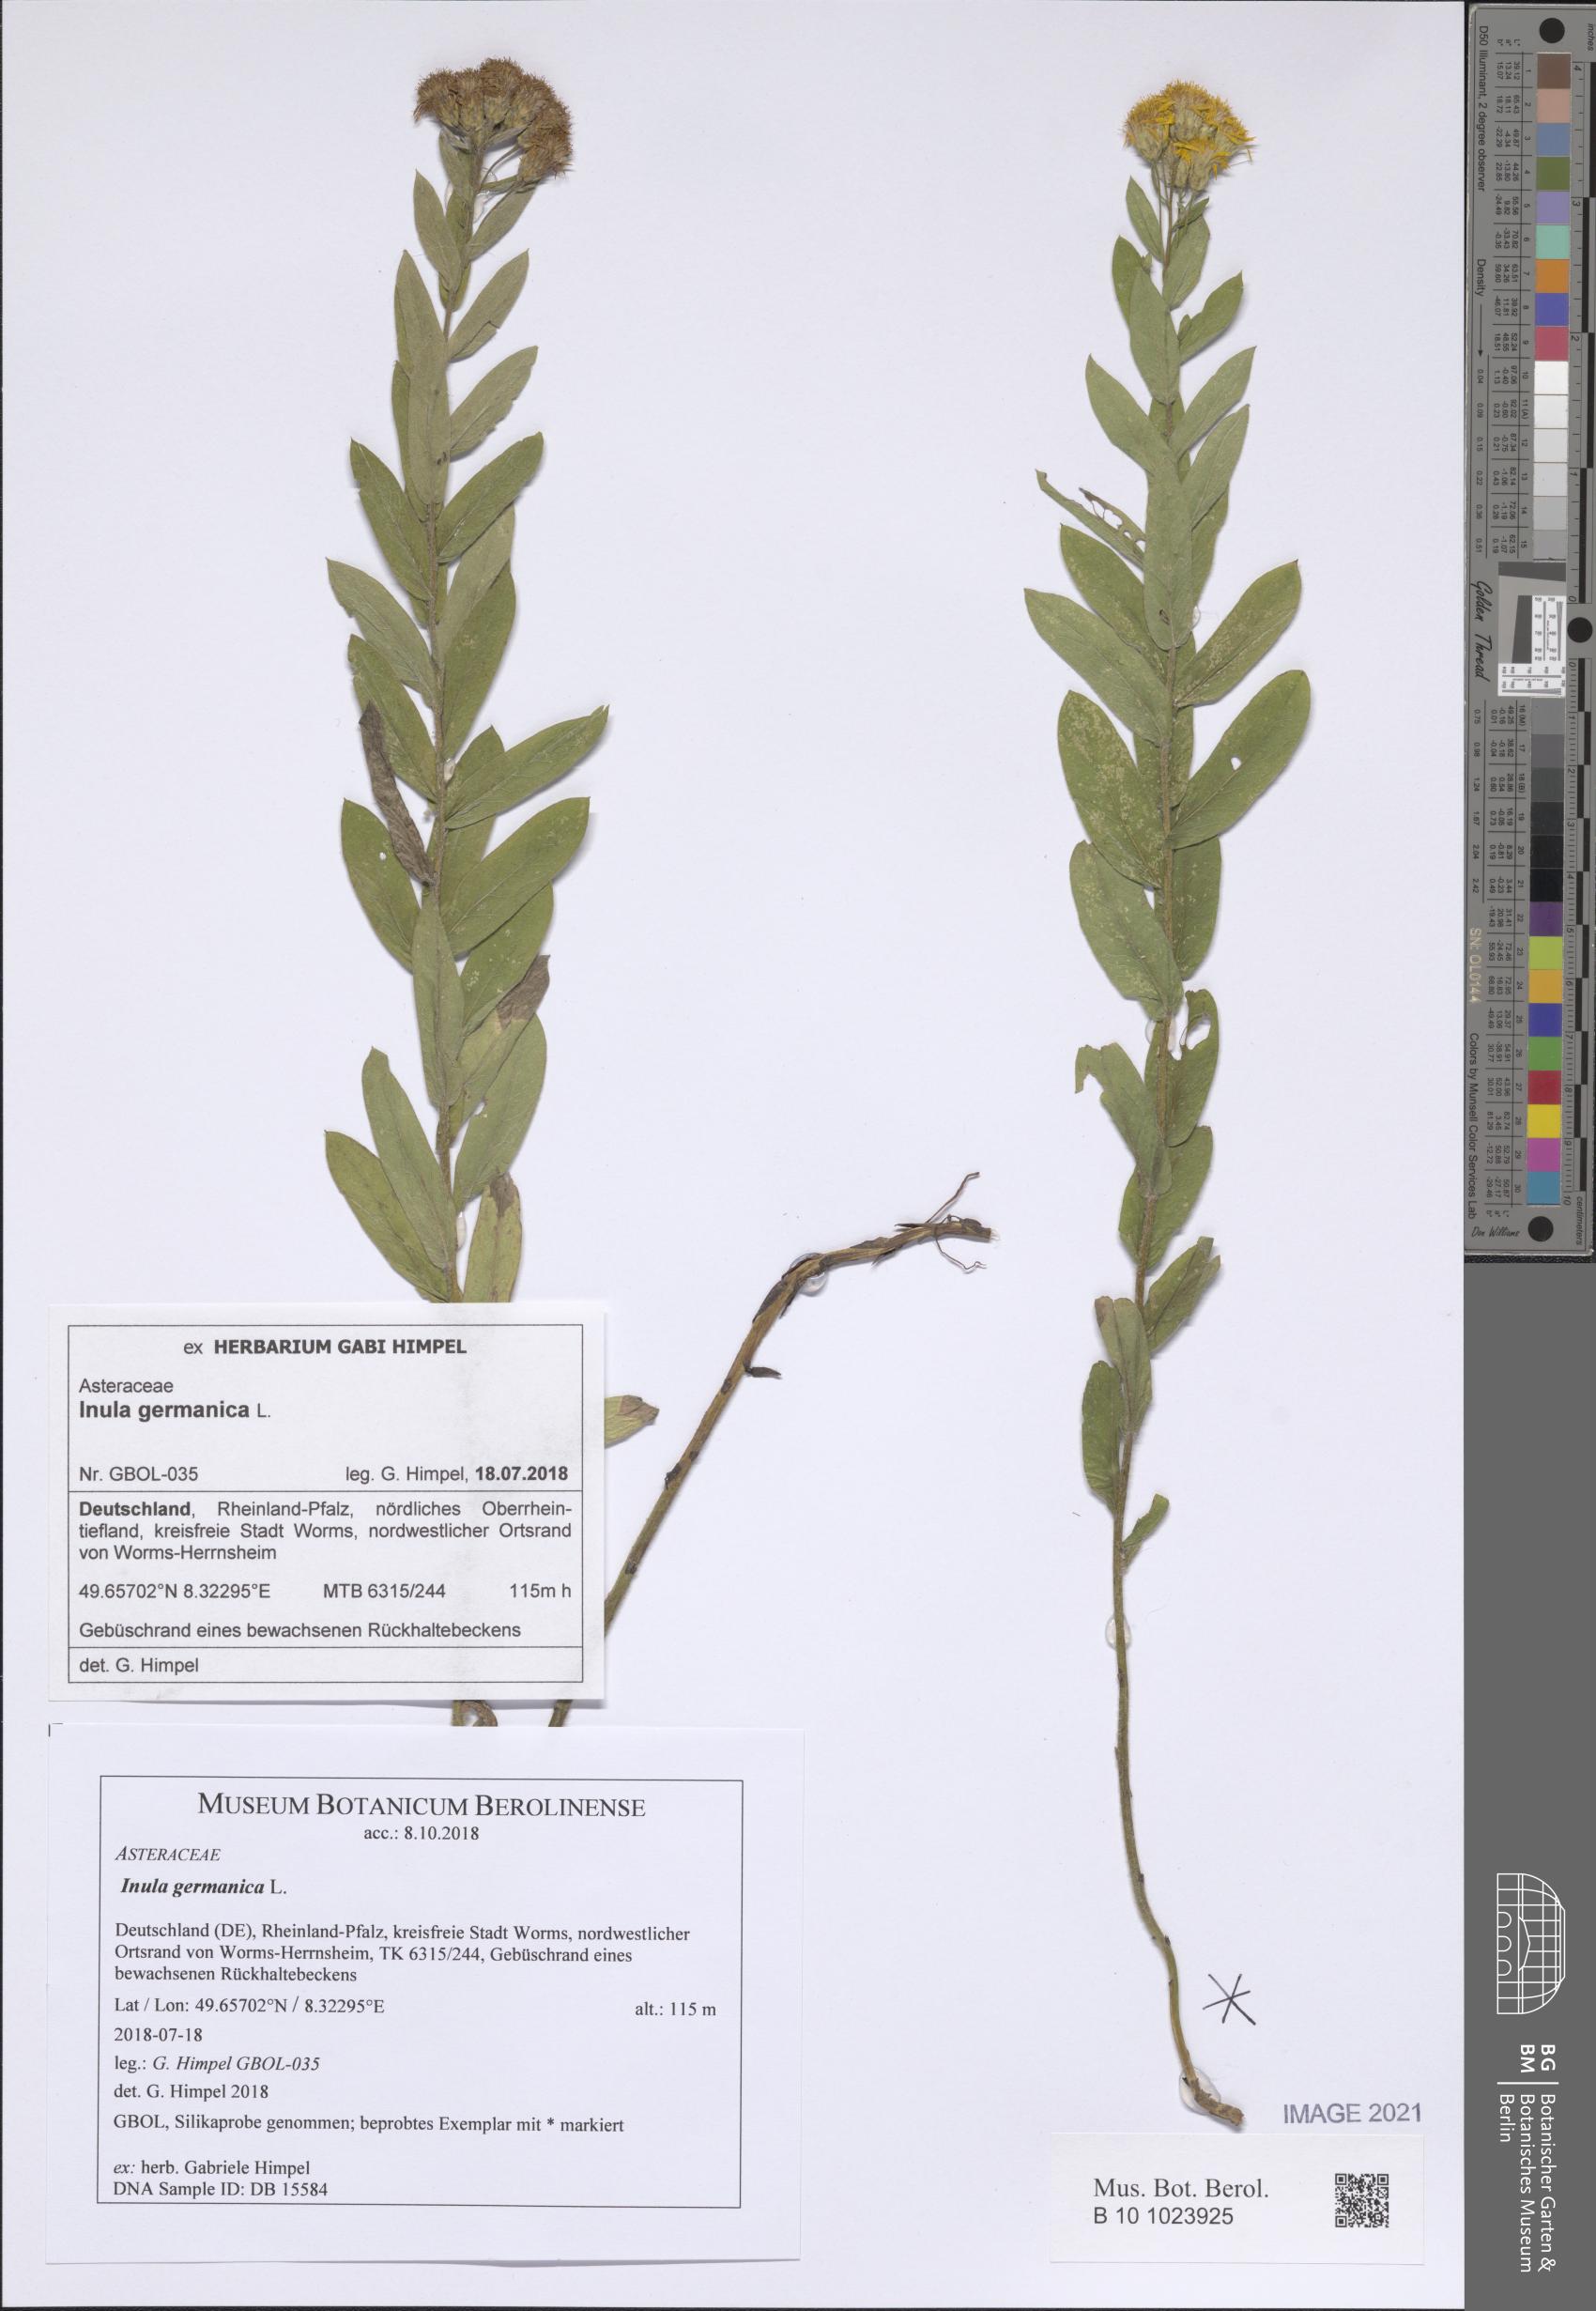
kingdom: Plantae
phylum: Tracheophyta
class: Magnoliopsida
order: Asterales
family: Asteraceae
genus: Pentanema
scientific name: Pentanema germanicum
